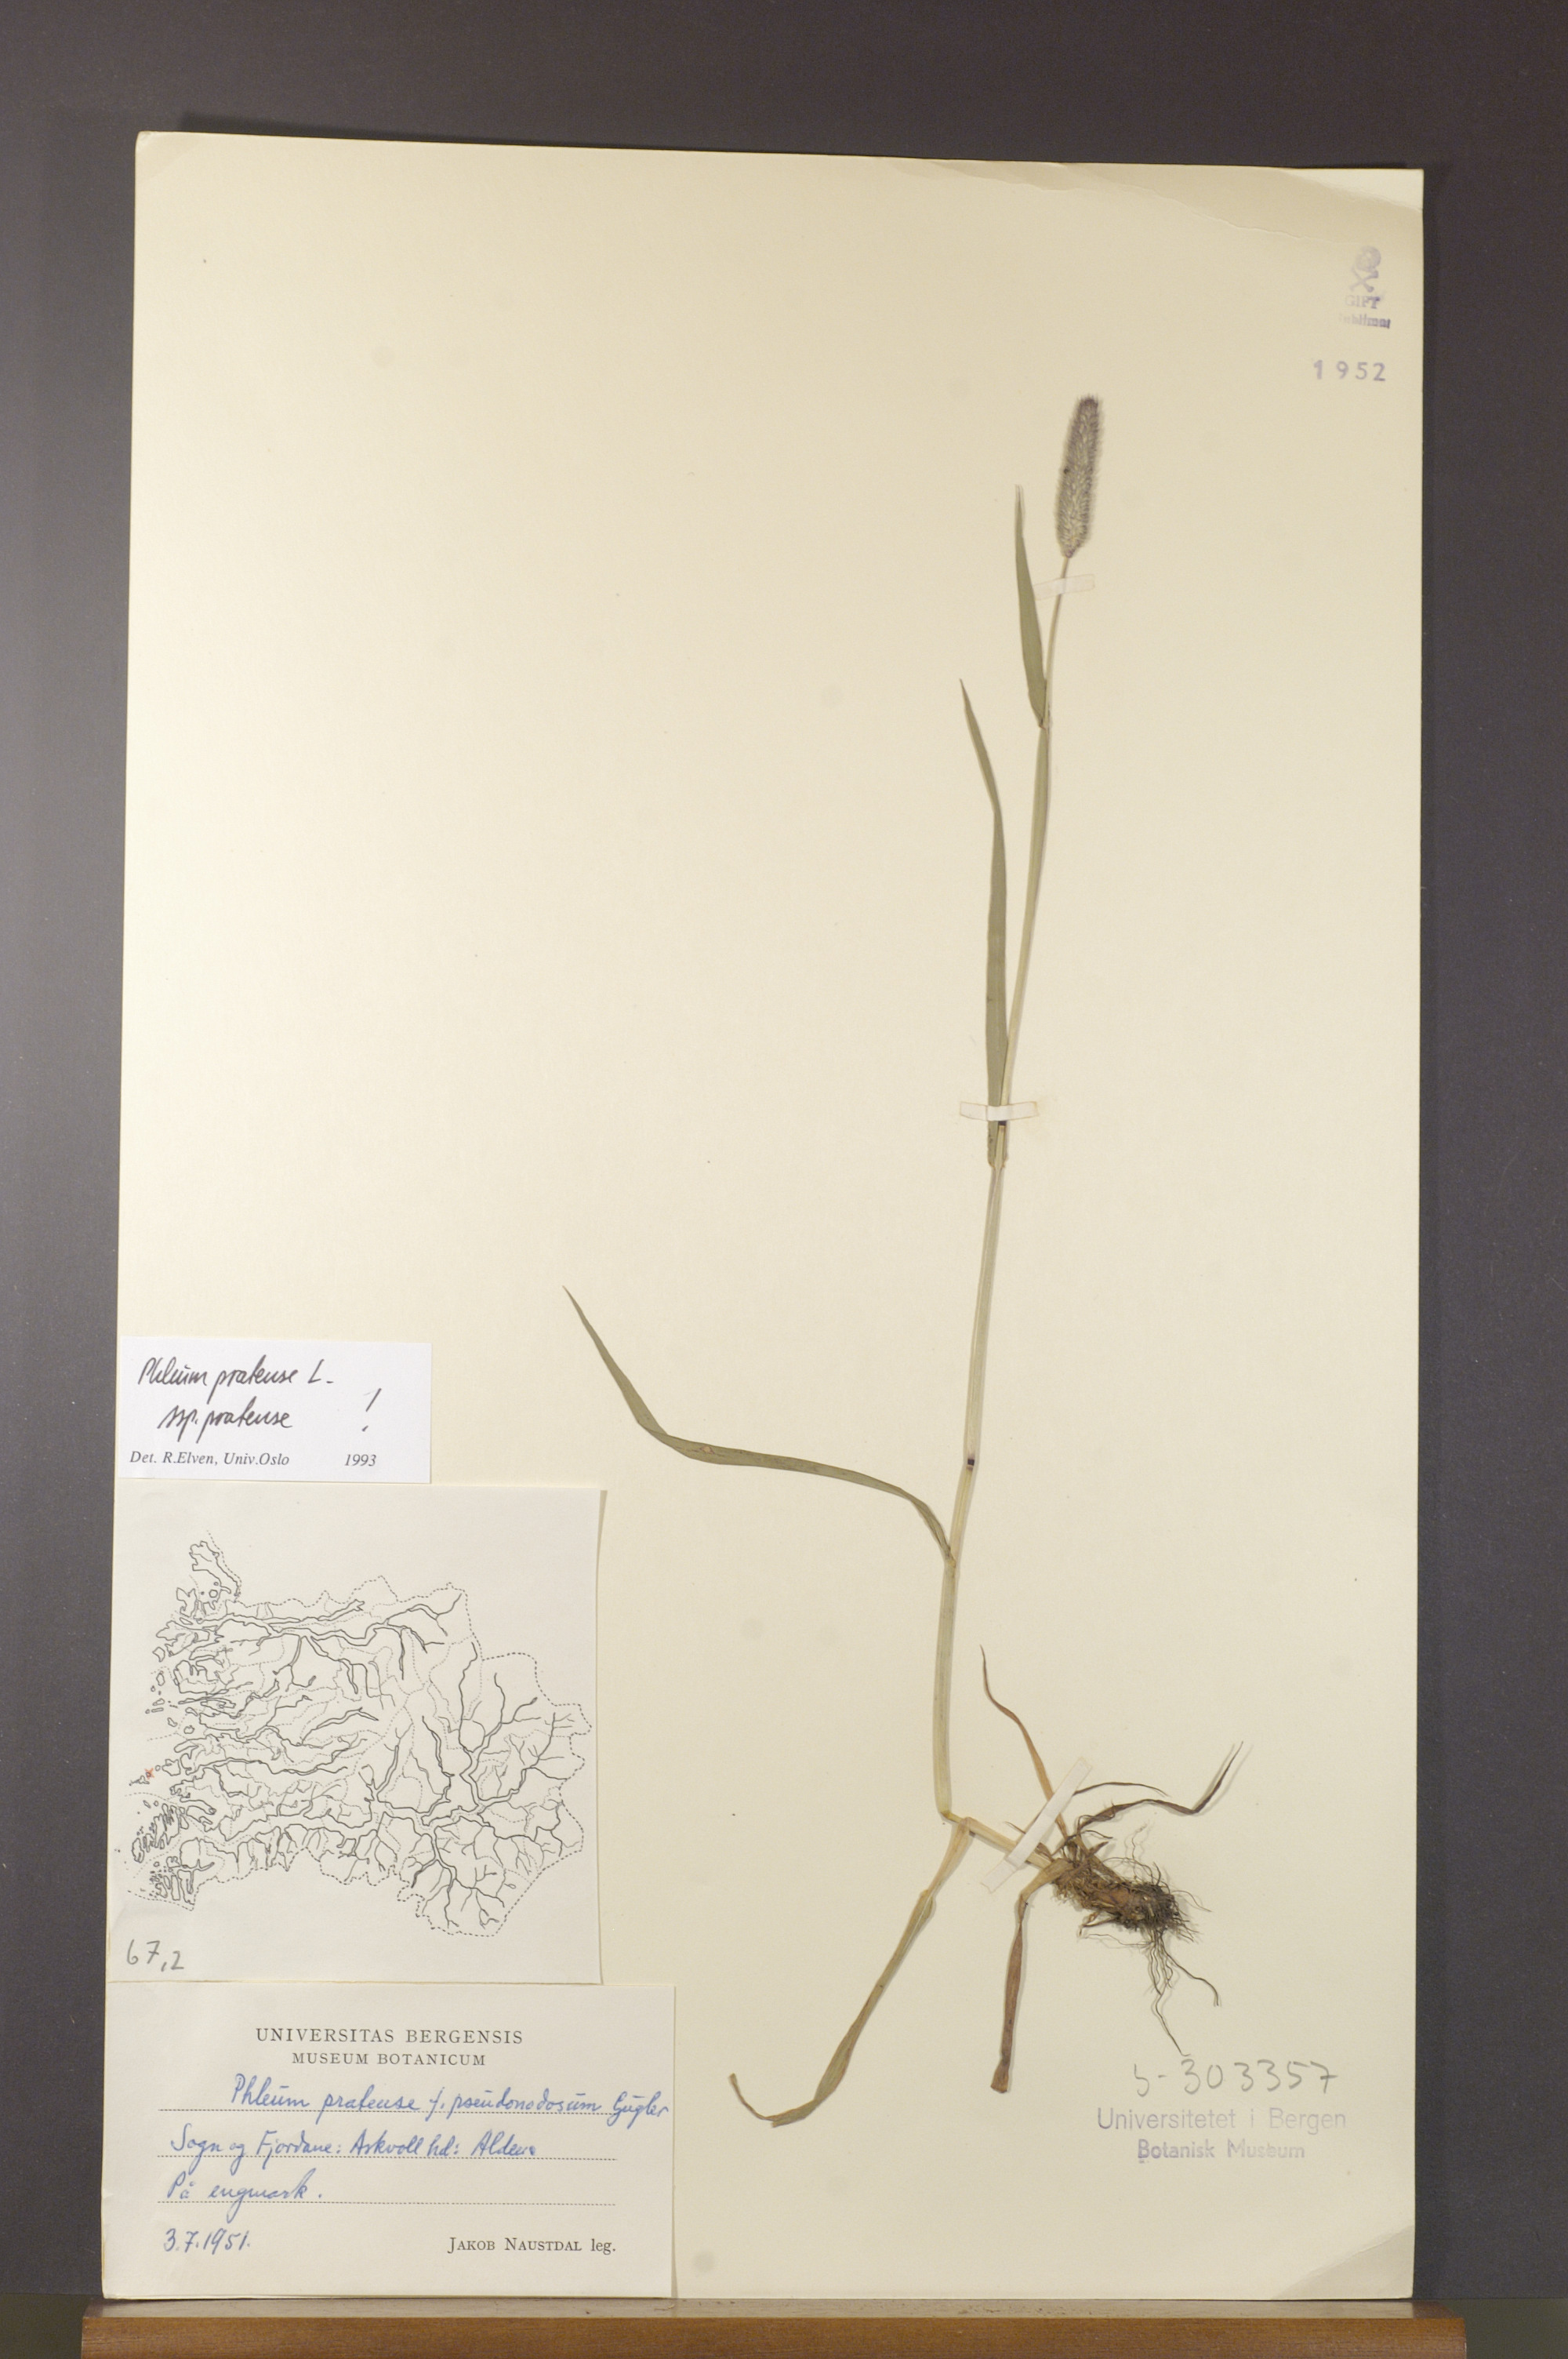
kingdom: Plantae
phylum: Tracheophyta
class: Liliopsida
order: Poales
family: Poaceae
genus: Phleum
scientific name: Phleum pratense
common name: Timothy grass
